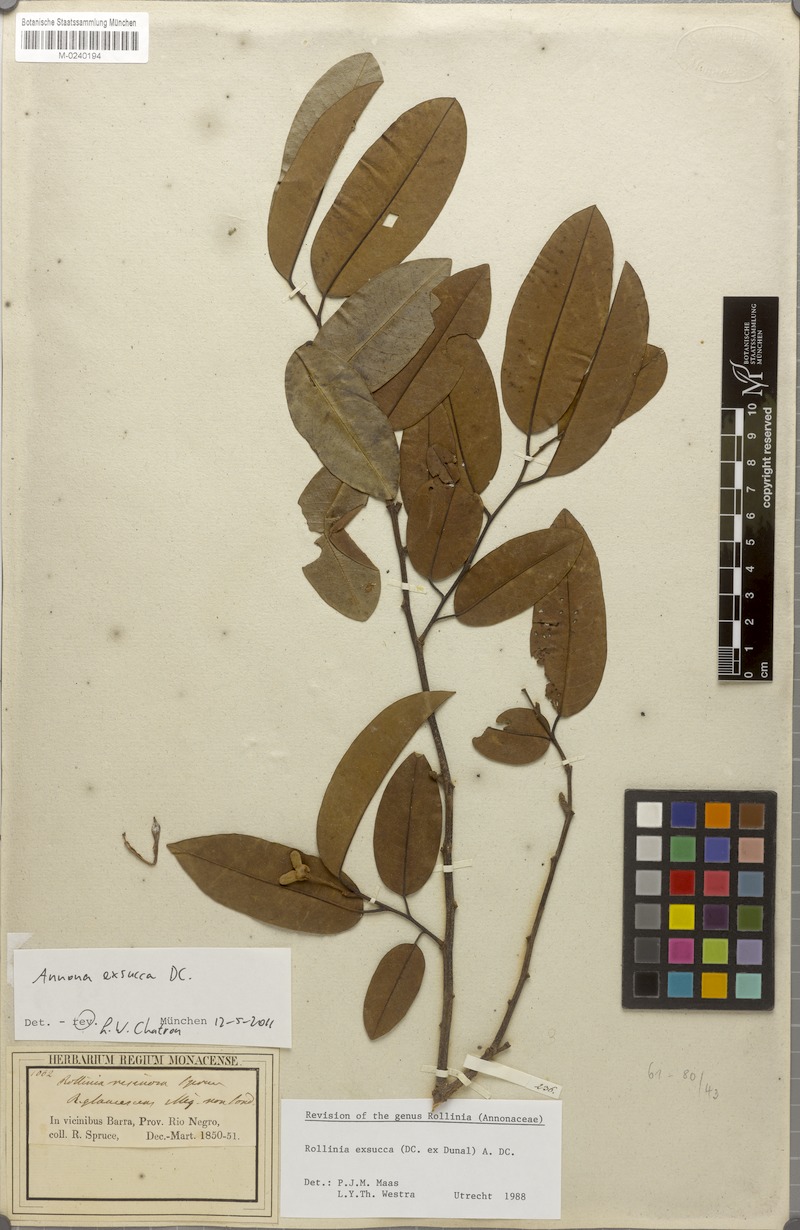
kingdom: Plantae
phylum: Tracheophyta
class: Magnoliopsida
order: Magnoliales
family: Annonaceae
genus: Annona
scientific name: Annona exsucca
